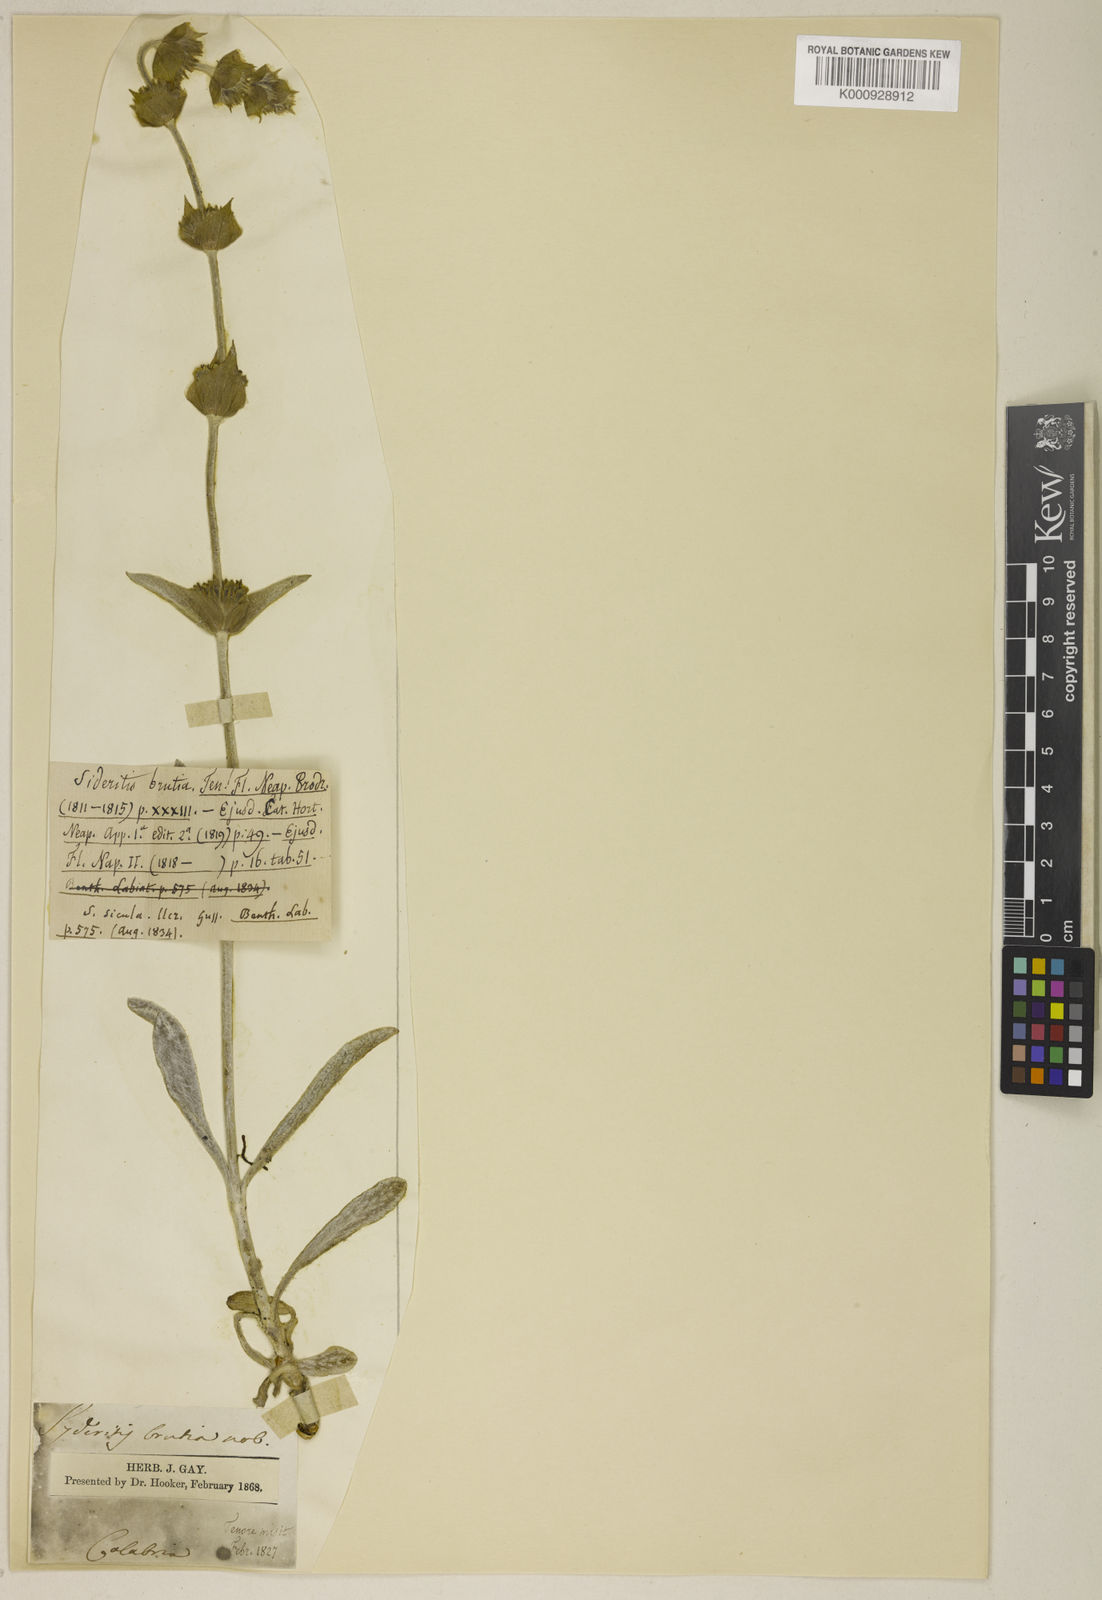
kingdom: Plantae
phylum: Tracheophyta
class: Magnoliopsida
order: Lamiales
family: Lamiaceae
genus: Sideritis
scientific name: Sideritis syriaca
